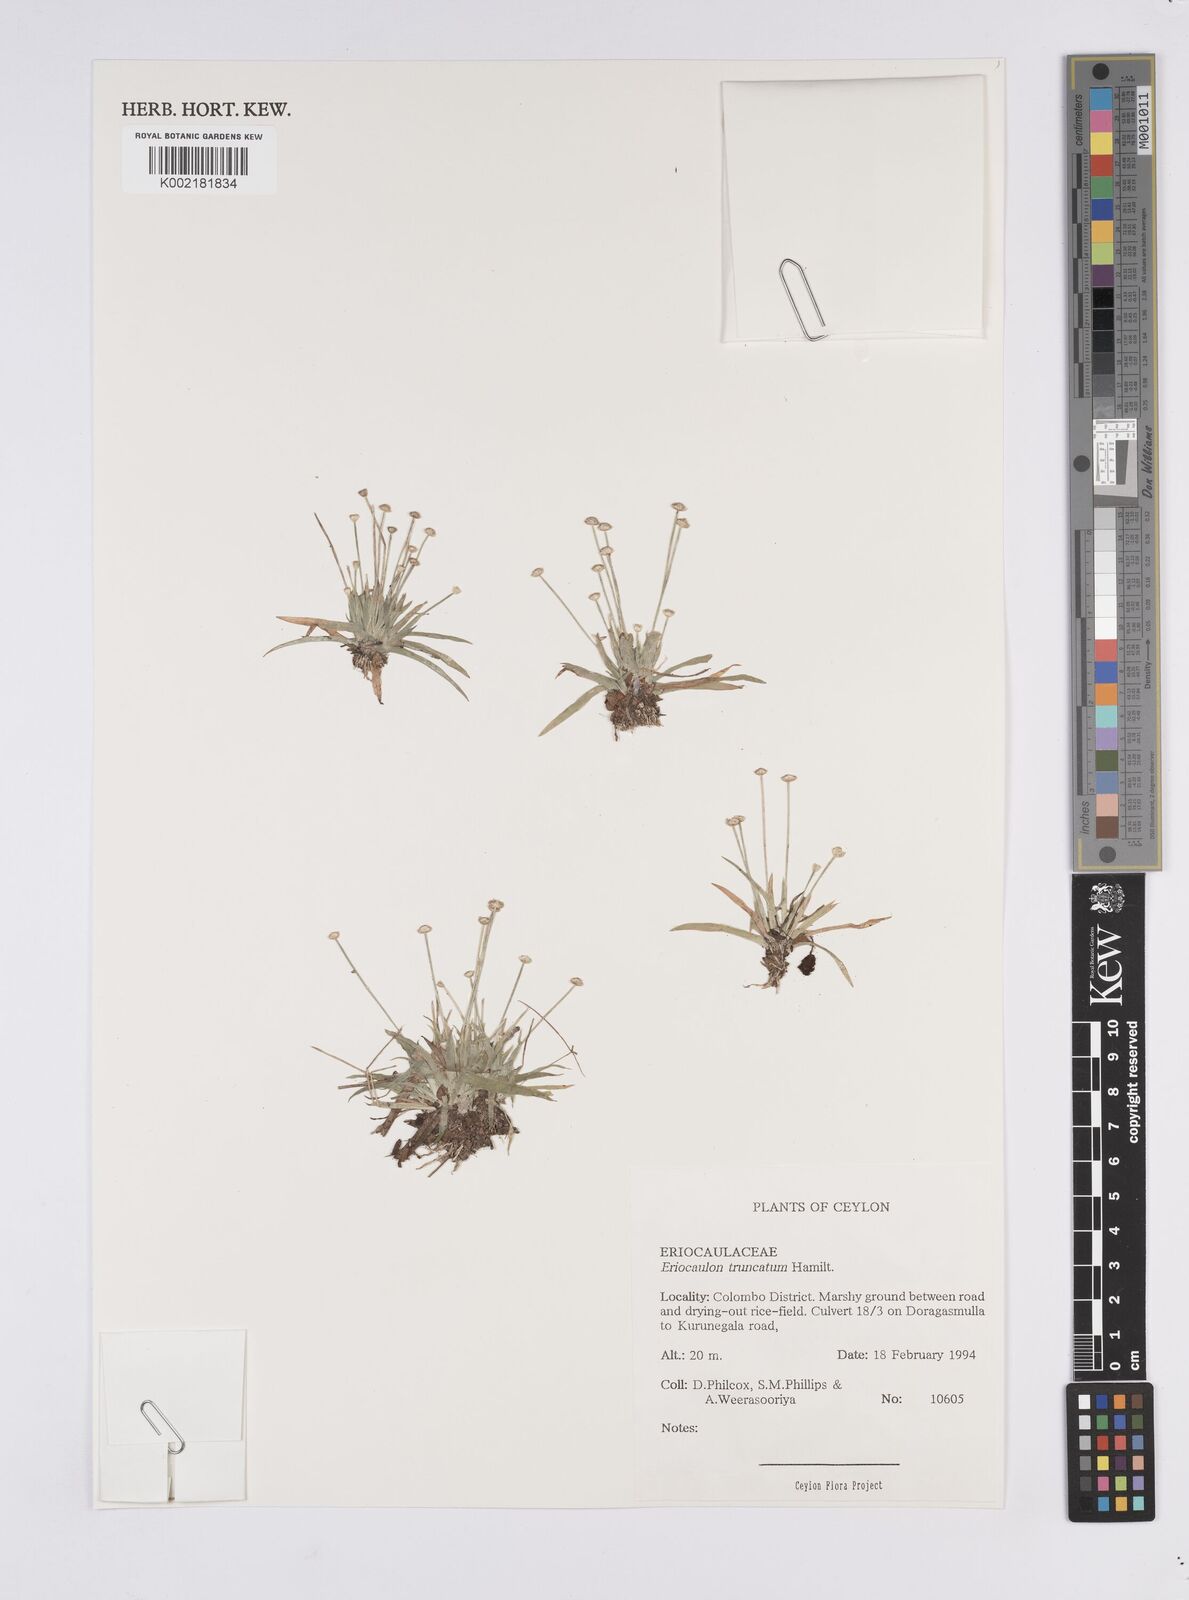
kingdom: Plantae
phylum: Tracheophyta
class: Liliopsida
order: Poales
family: Eriocaulaceae
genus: Eriocaulon
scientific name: Eriocaulon truncatum
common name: Short pipe-wort
